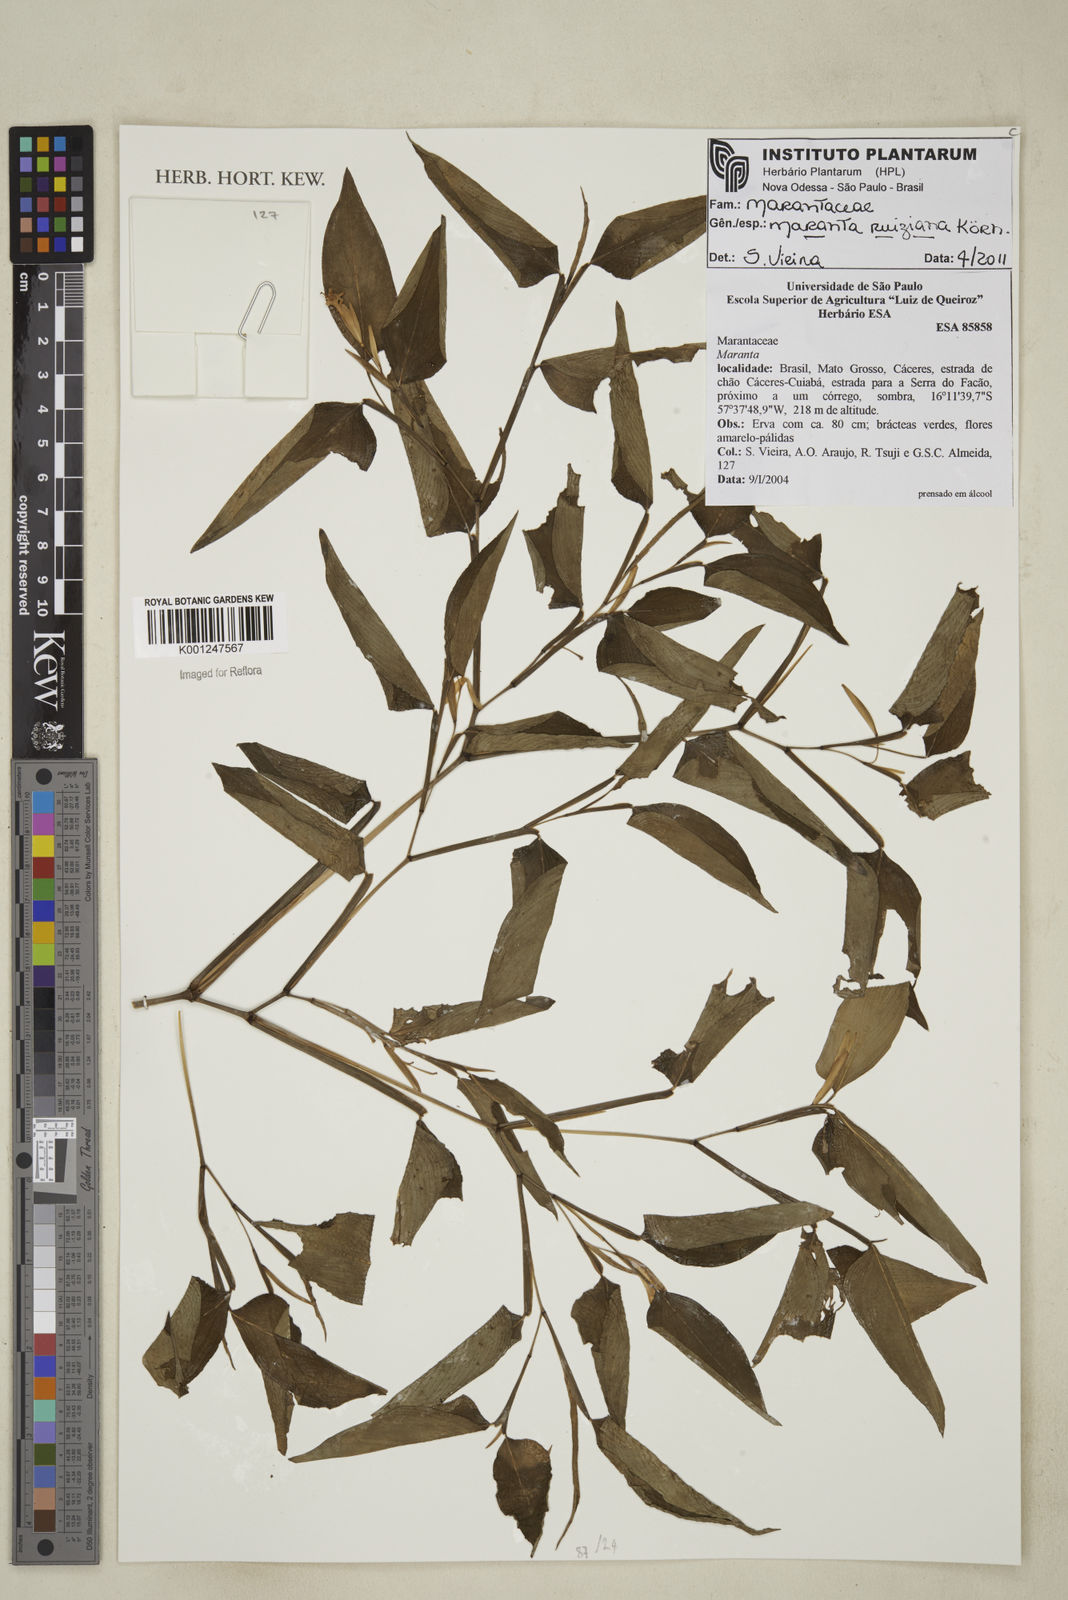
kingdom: Plantae
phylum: Tracheophyta
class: Liliopsida
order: Zingiberales
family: Marantaceae
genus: Maranta
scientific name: Maranta ruiziana
